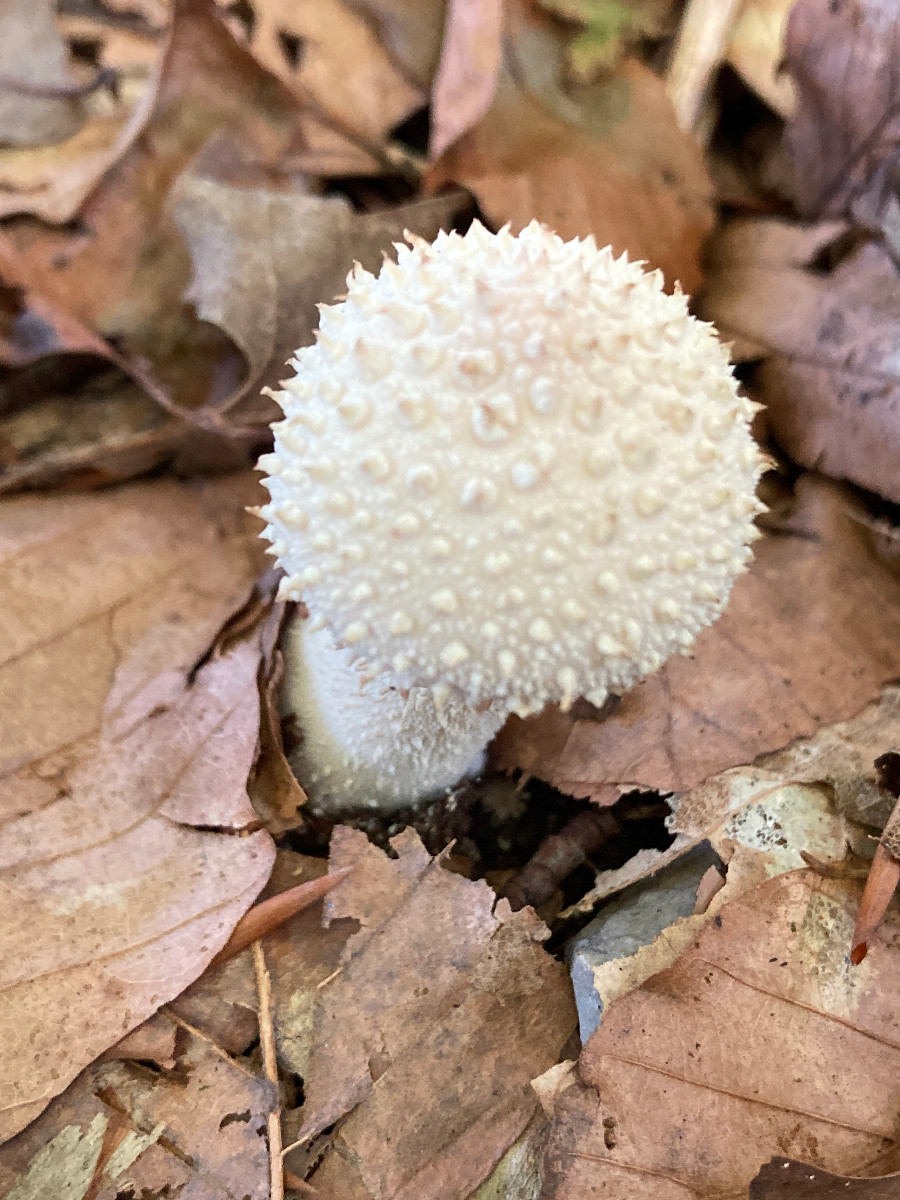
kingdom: Fungi
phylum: Basidiomycota
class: Agaricomycetes
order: Agaricales
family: Lycoperdaceae
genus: Lycoperdon
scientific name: Lycoperdon perlatum
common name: krystal-støvbold
